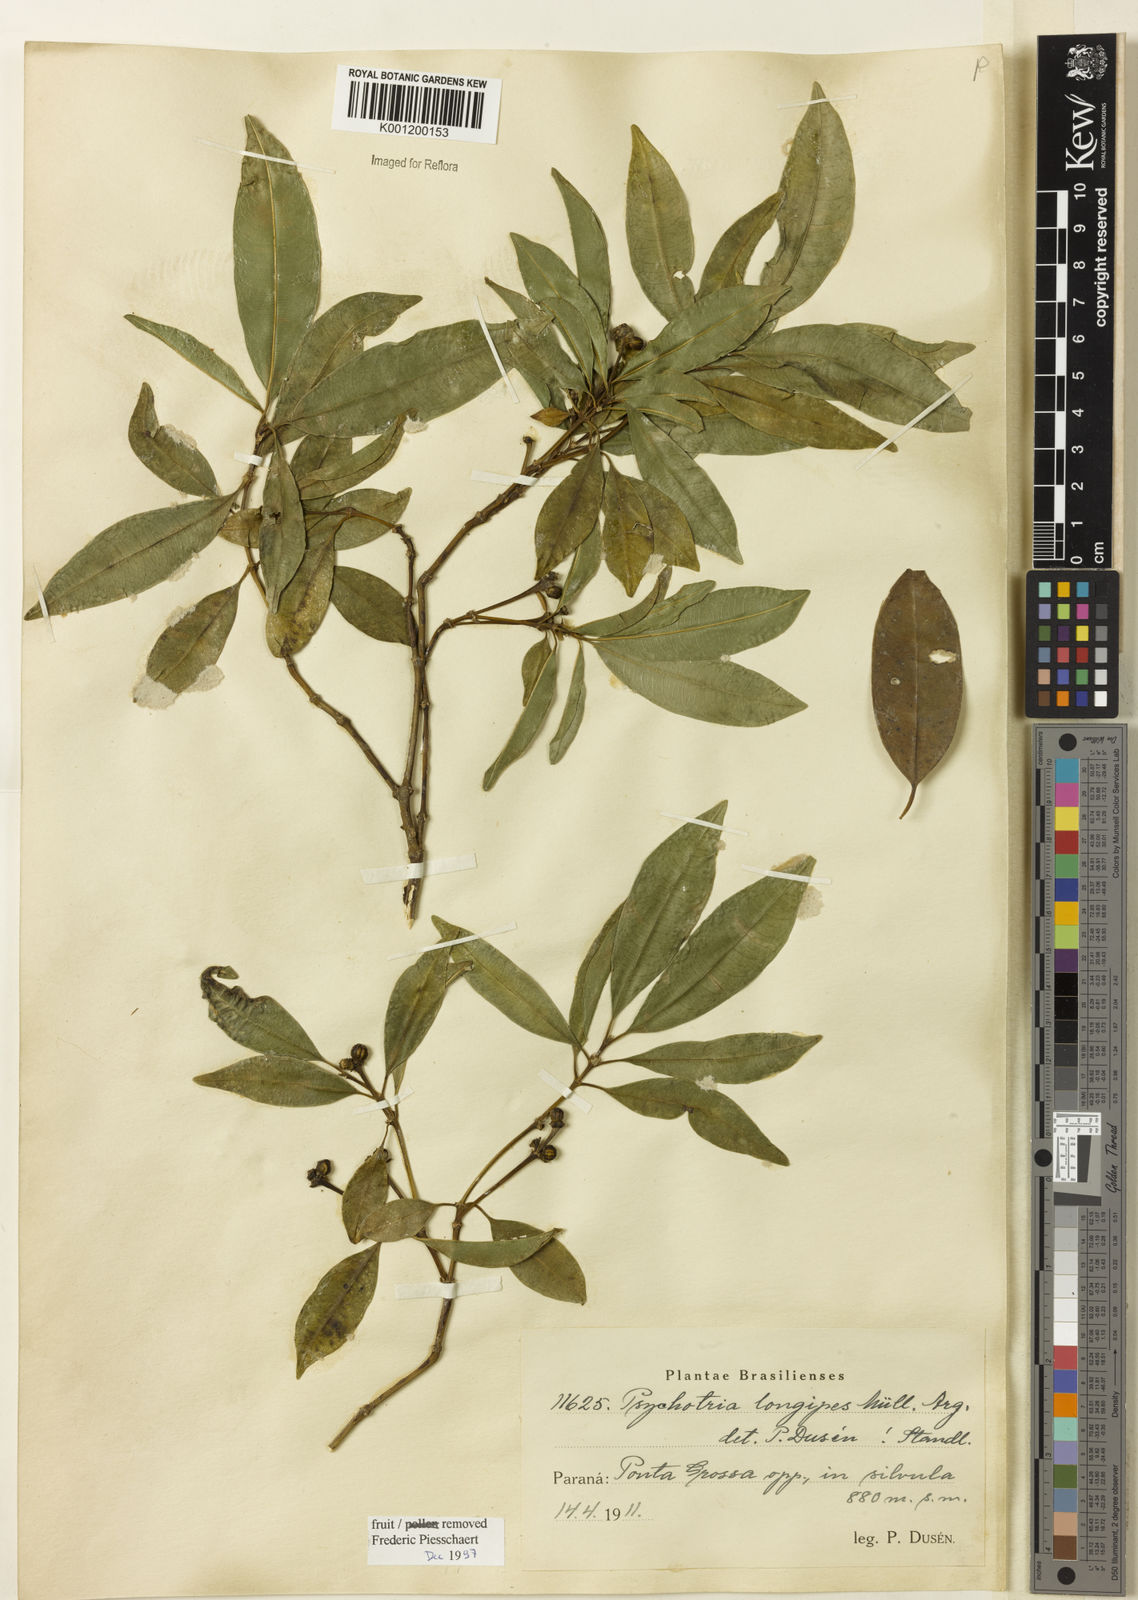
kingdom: Plantae
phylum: Tracheophyta
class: Magnoliopsida
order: Gentianales
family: Rubiaceae
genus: Rudgea
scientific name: Rudgea sessilis
